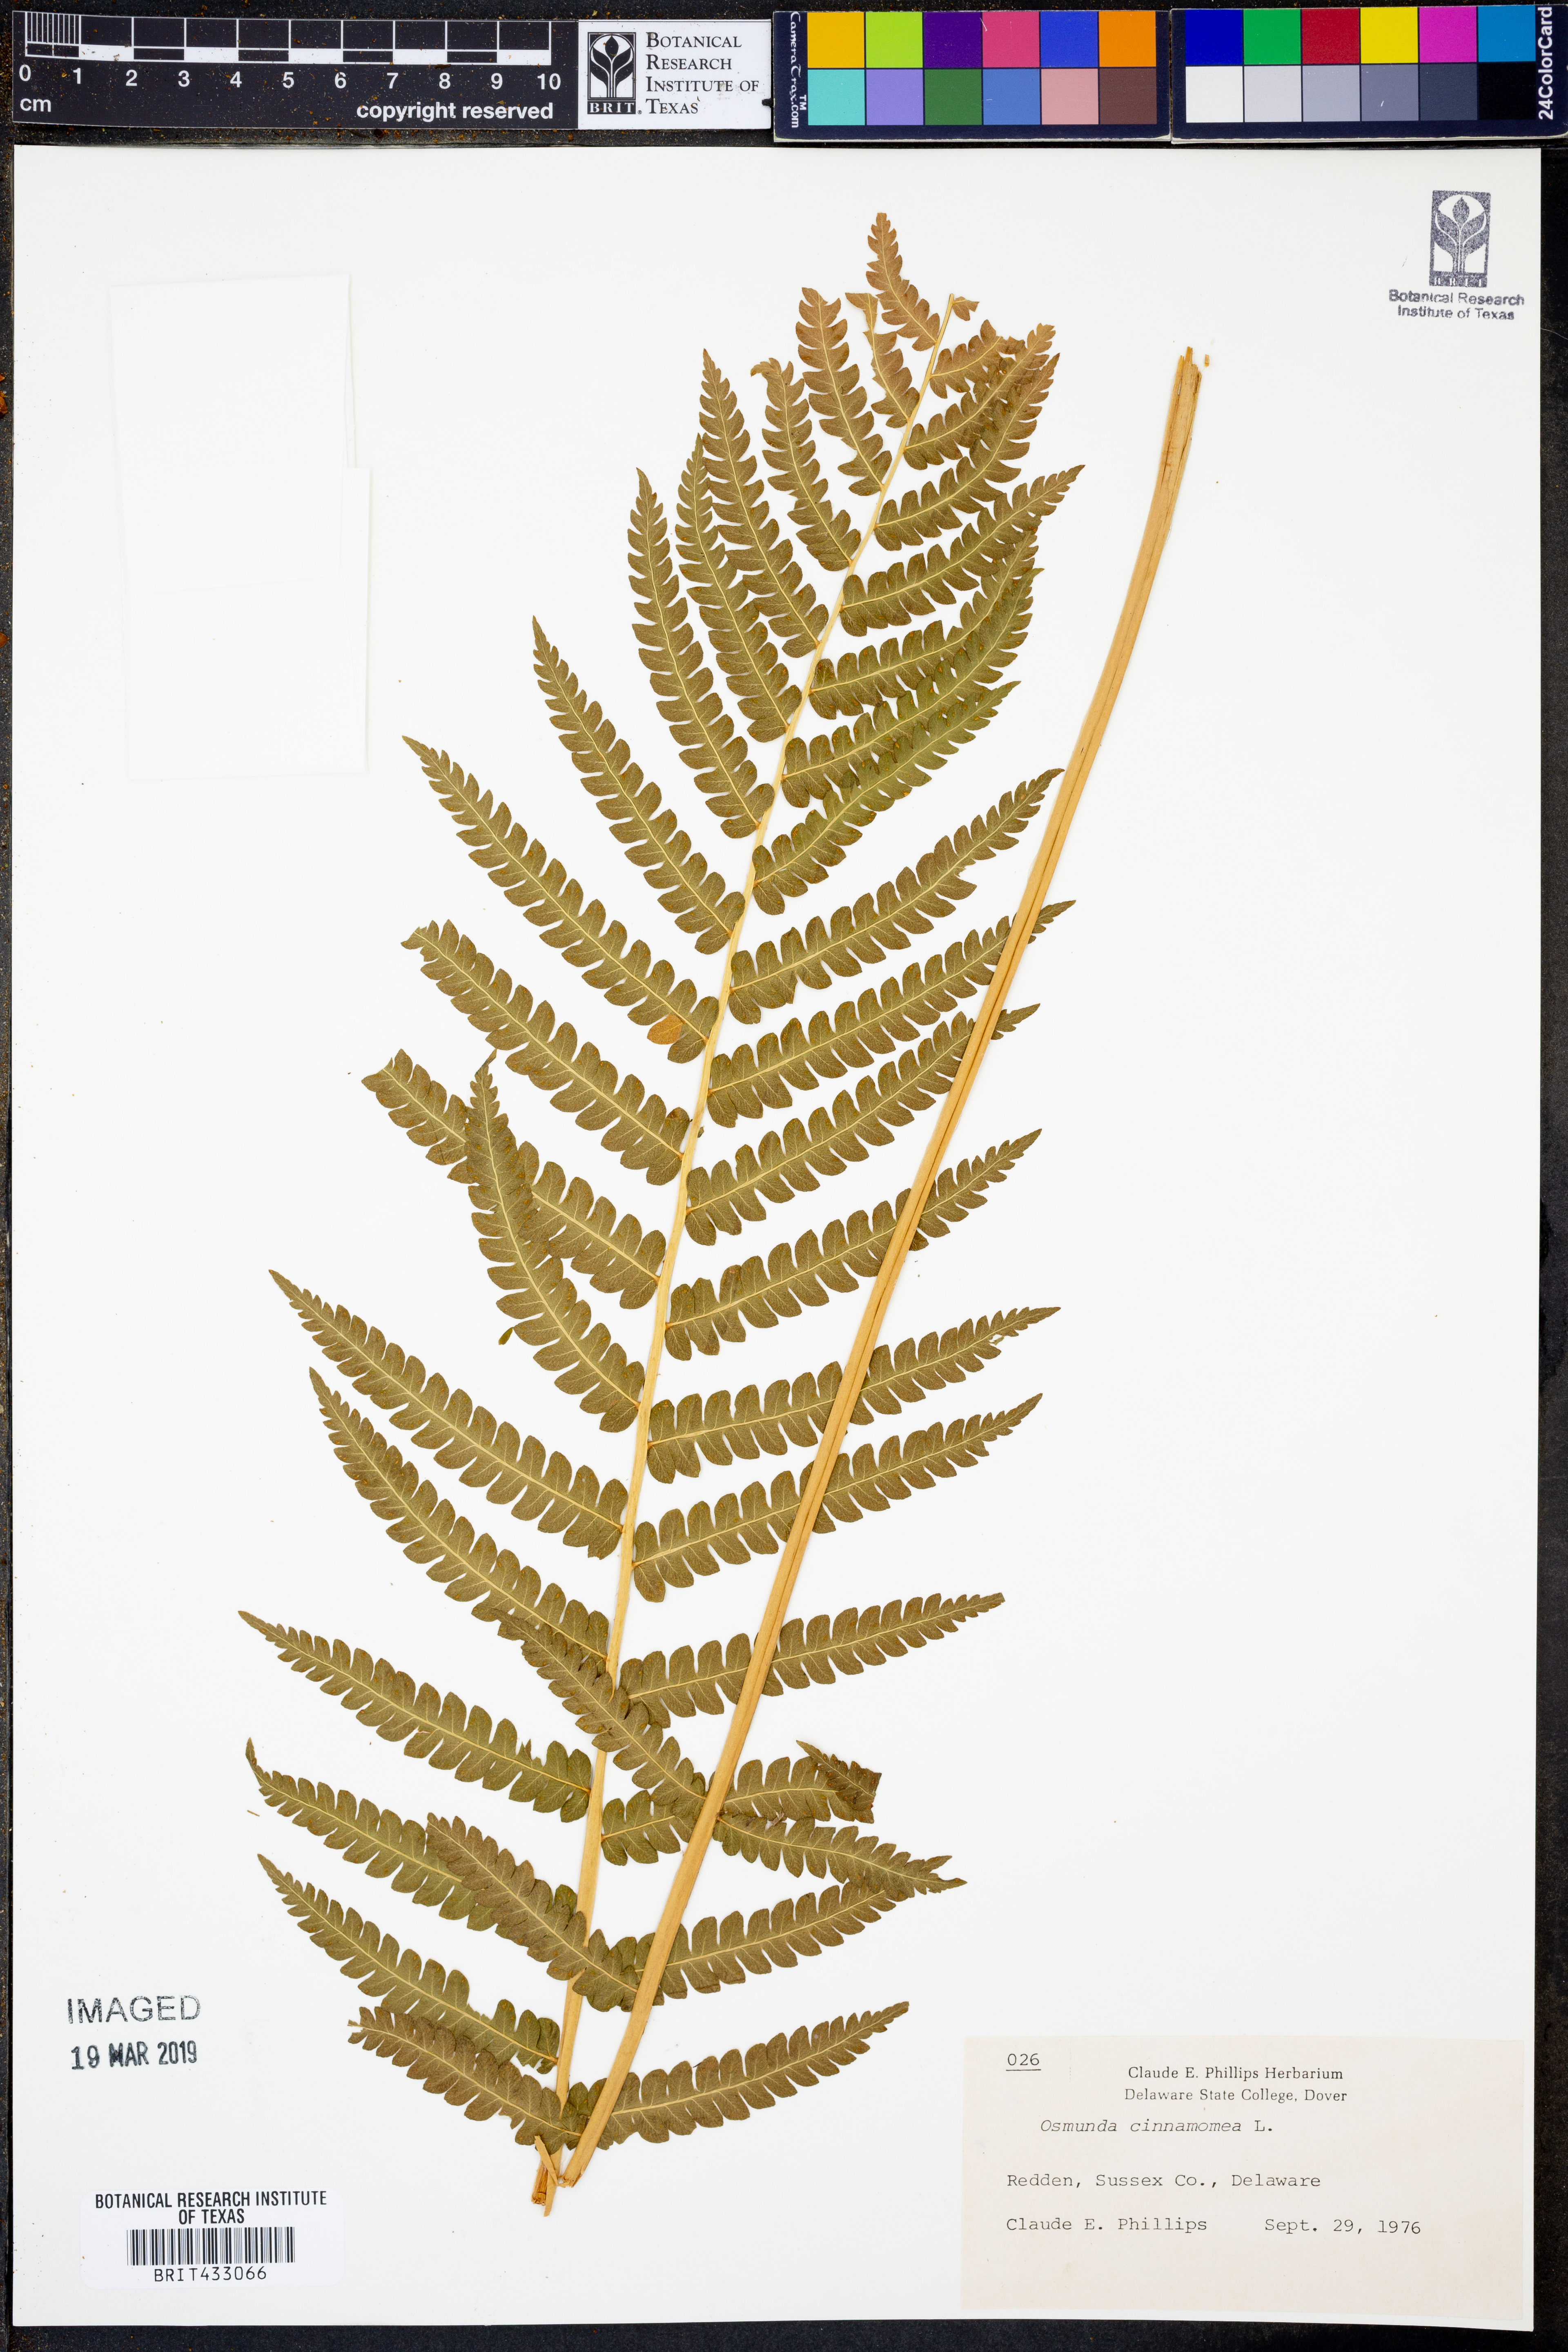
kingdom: Plantae
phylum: Tracheophyta
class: Polypodiopsida
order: Osmundales
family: Osmundaceae
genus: Osmundastrum
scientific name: Osmundastrum cinnamomeum
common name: Cinnamon fern
